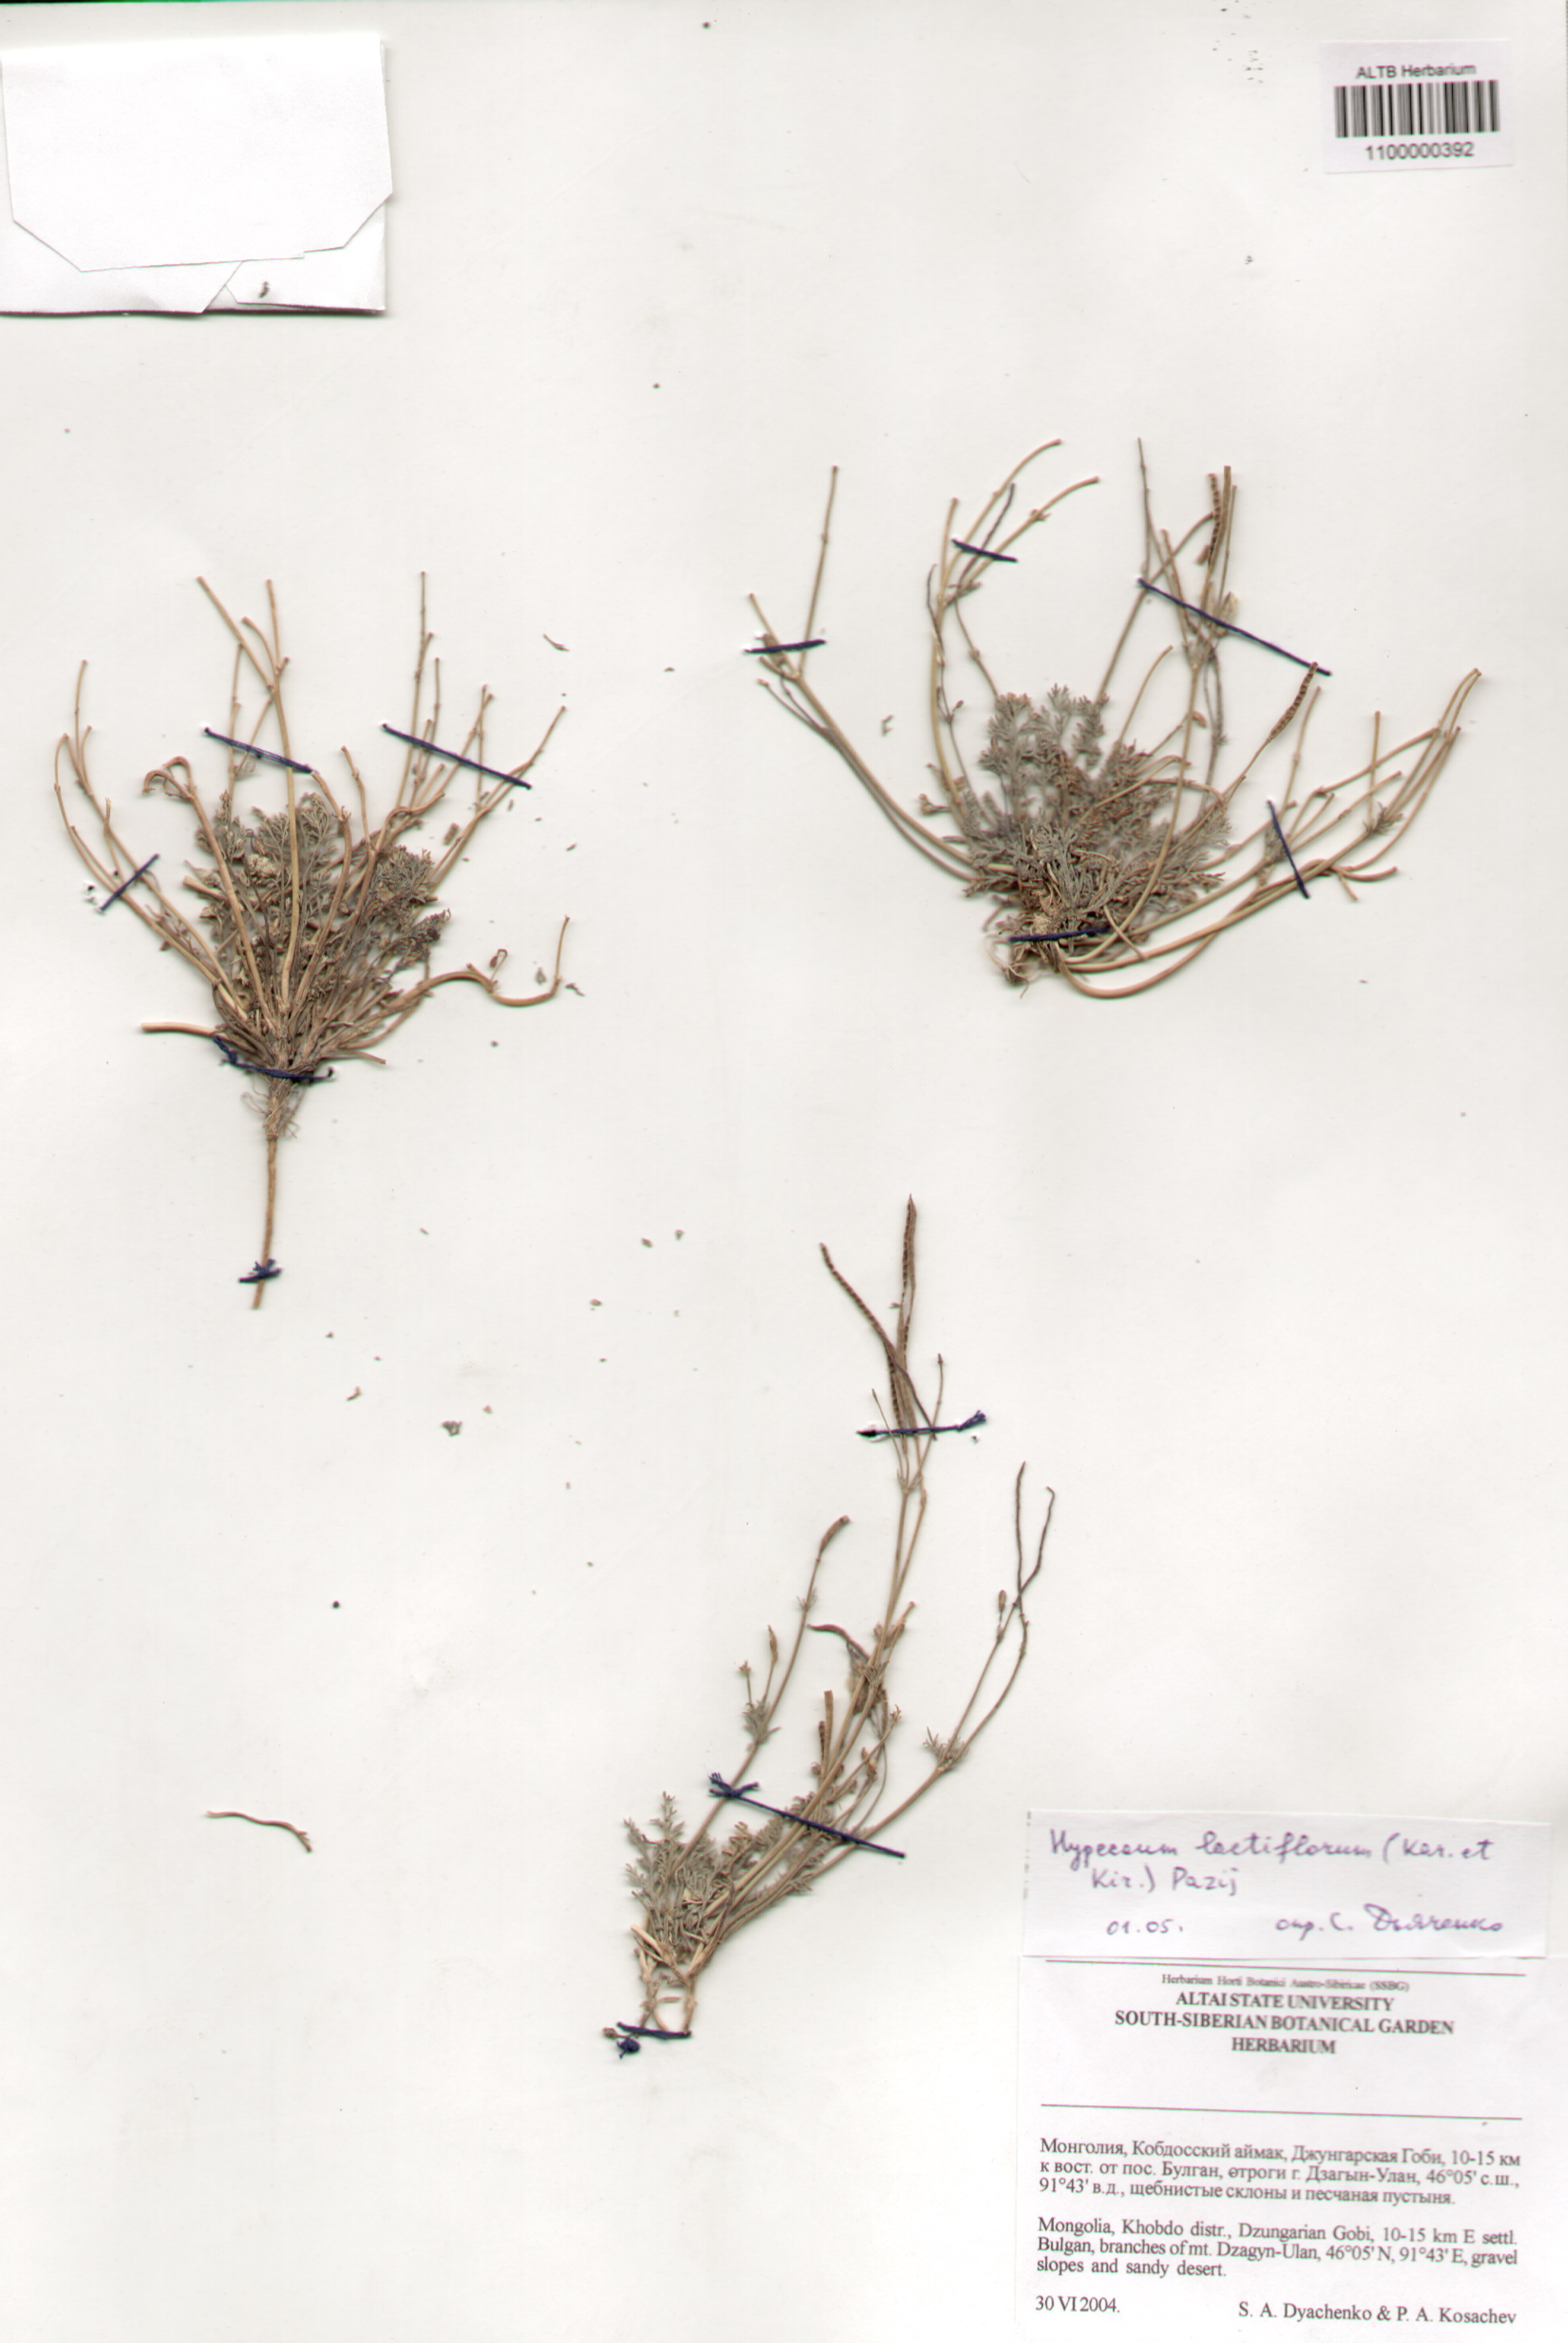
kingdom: Plantae
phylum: Tracheophyta
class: Magnoliopsida
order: Ranunculales
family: Papaveraceae
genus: Hypecoum
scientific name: Hypecoum lactiflorum
